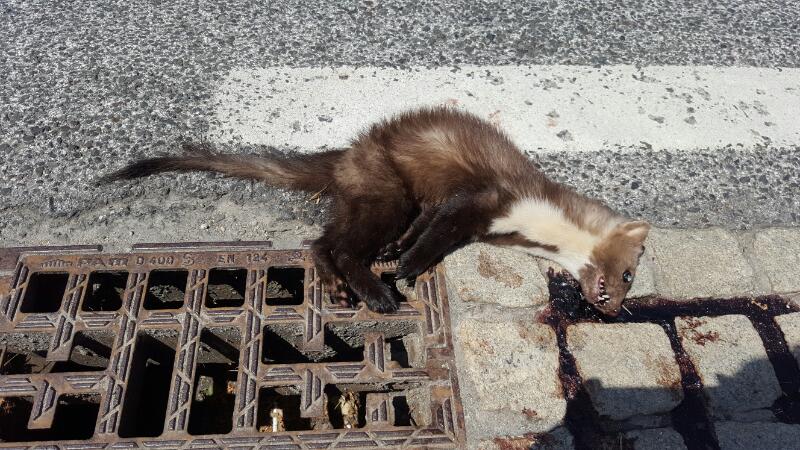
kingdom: Animalia
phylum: Chordata
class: Mammalia
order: Carnivora
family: Mustelidae
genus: Martes
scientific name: Martes foina
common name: Beech marten
